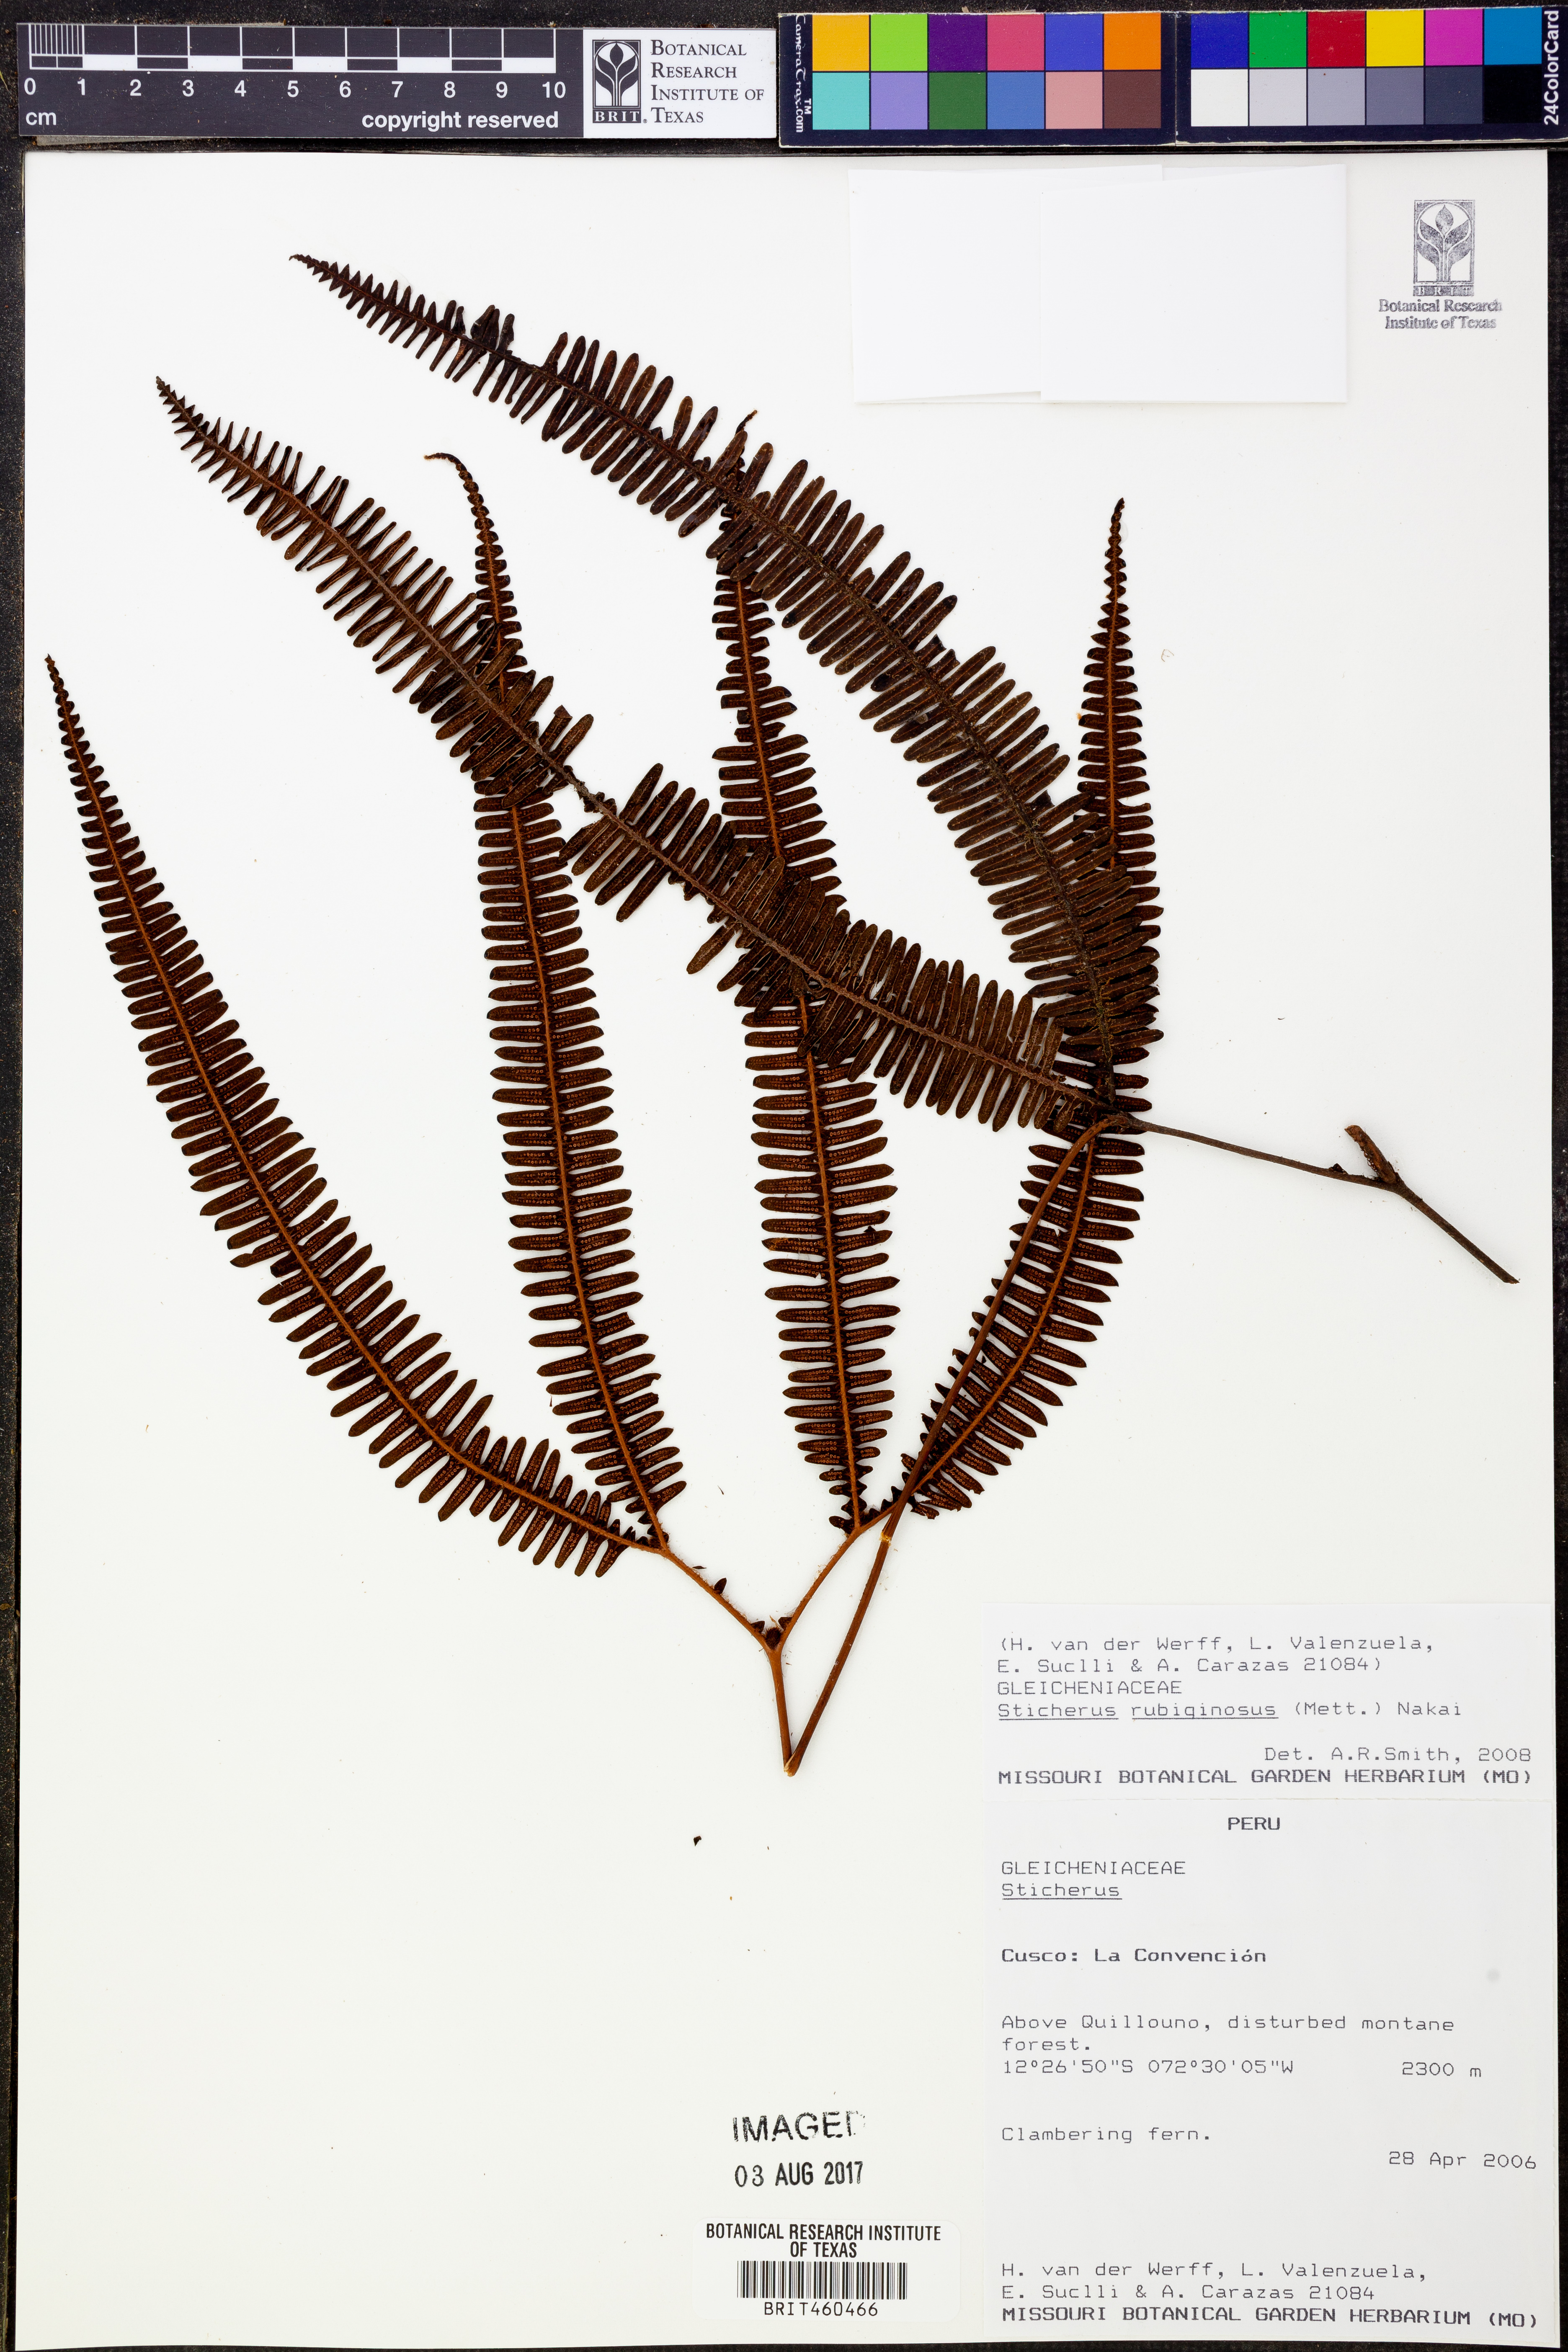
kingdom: Plantae
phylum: Tracheophyta
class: Polypodiopsida
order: Gleicheniales
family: Gleicheniaceae
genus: Sticherus
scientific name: Sticherus rubiginosus
